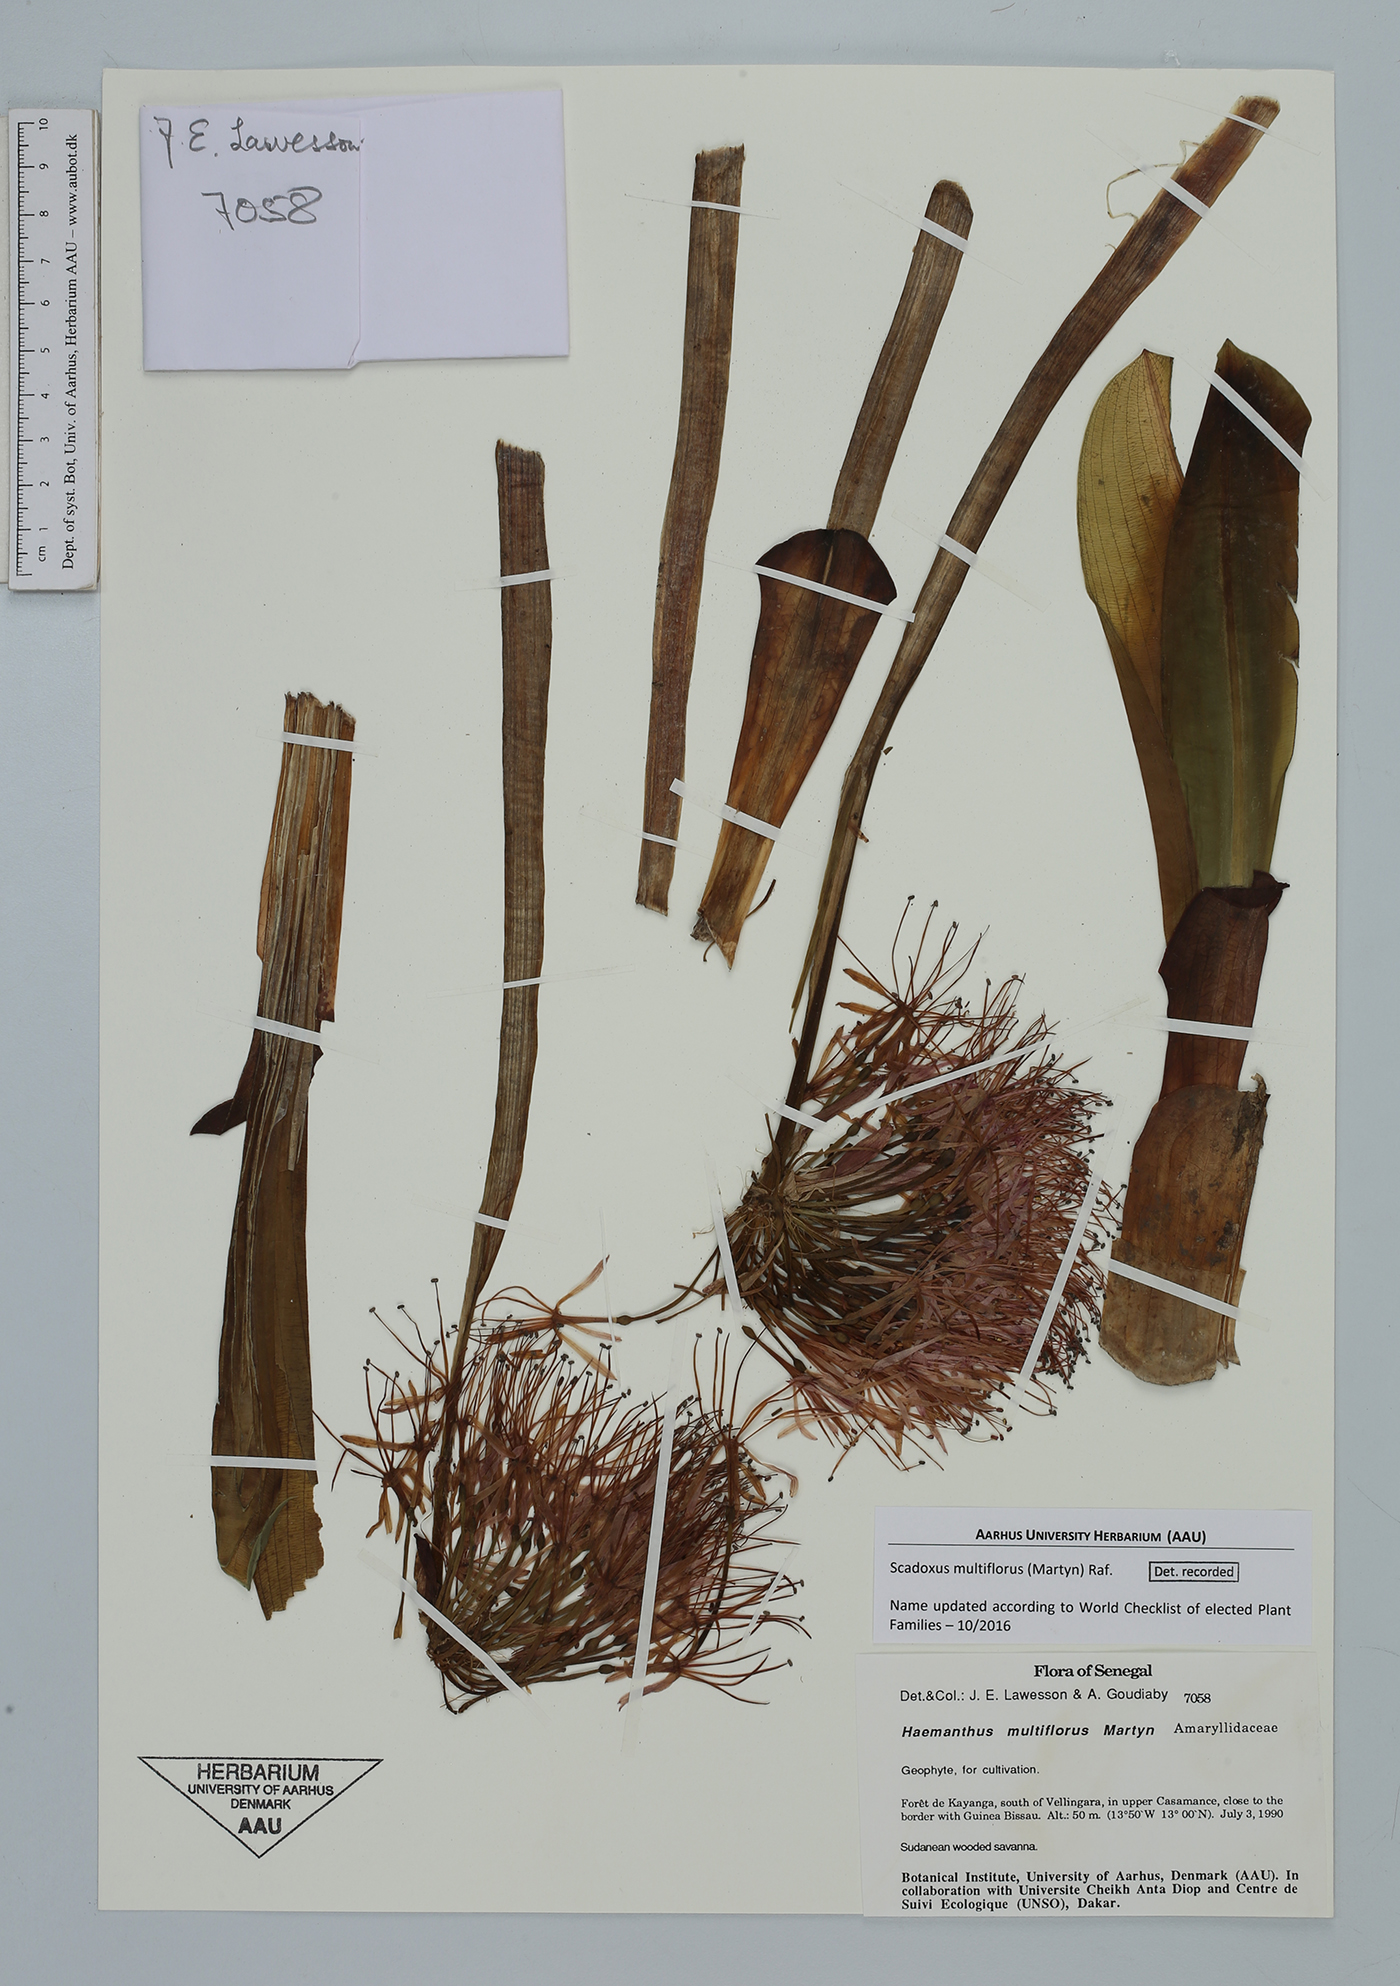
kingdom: Plantae
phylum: Tracheophyta
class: Liliopsida
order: Asparagales
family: Amaryllidaceae
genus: Scadoxus
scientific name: Scadoxus multiflorus
